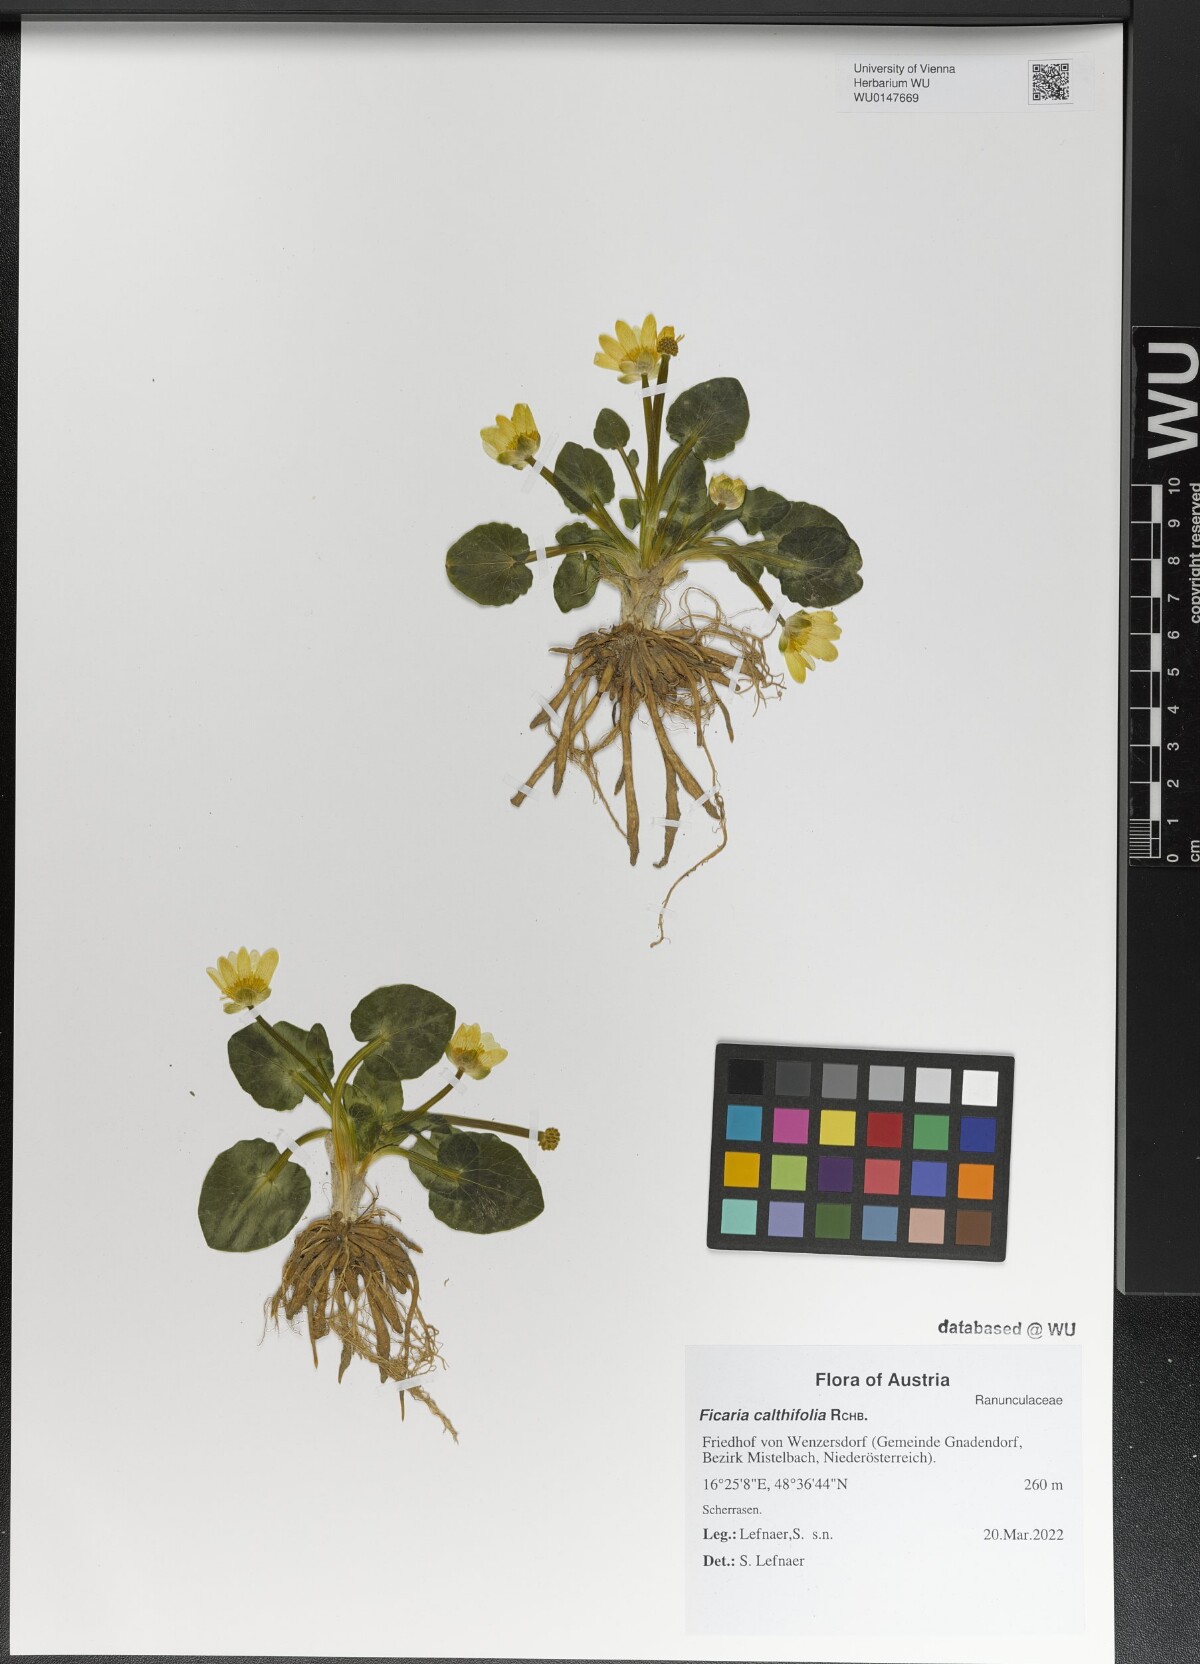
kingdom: Plantae
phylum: Tracheophyta
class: Magnoliopsida
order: Ranunculales
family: Ranunculaceae
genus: Ficaria
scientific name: Ficaria calthifolia
